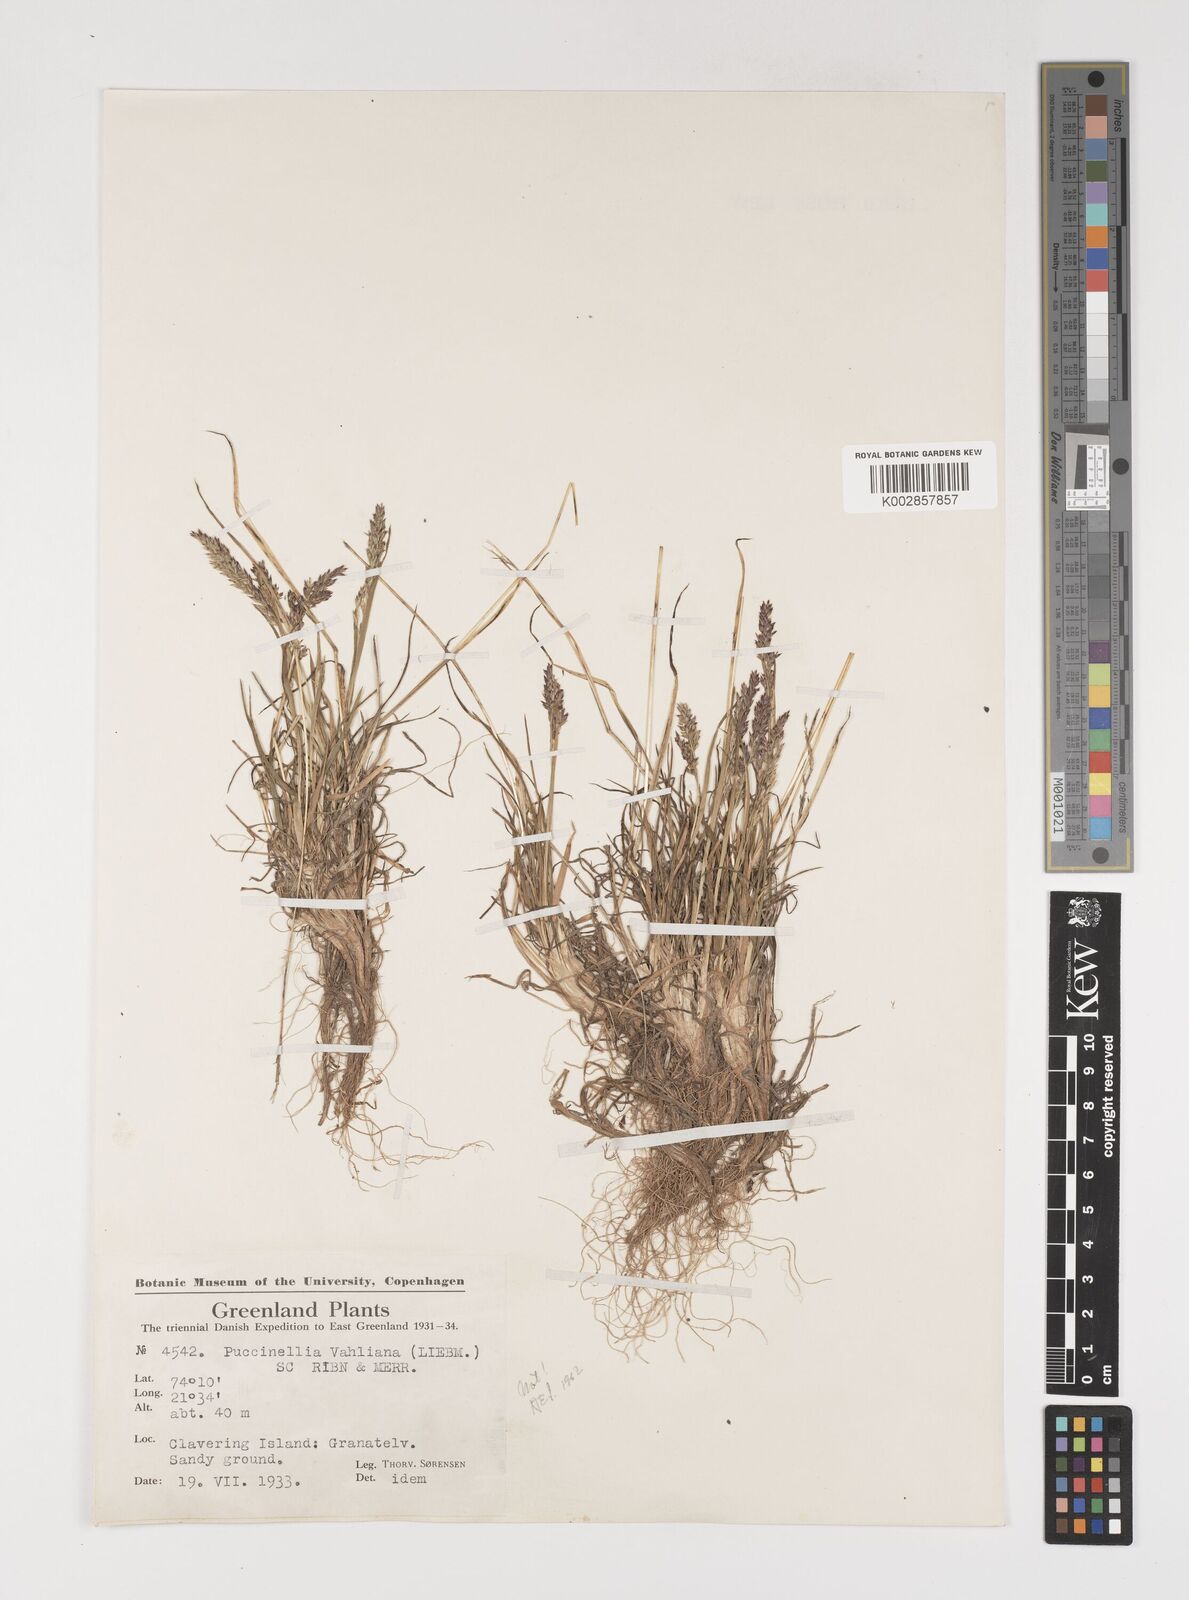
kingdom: Plantae
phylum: Tracheophyta
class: Liliopsida
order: Poales
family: Poaceae
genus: Puccinellia
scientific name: Puccinellia vahliana
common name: Vahl's alkaligrass
